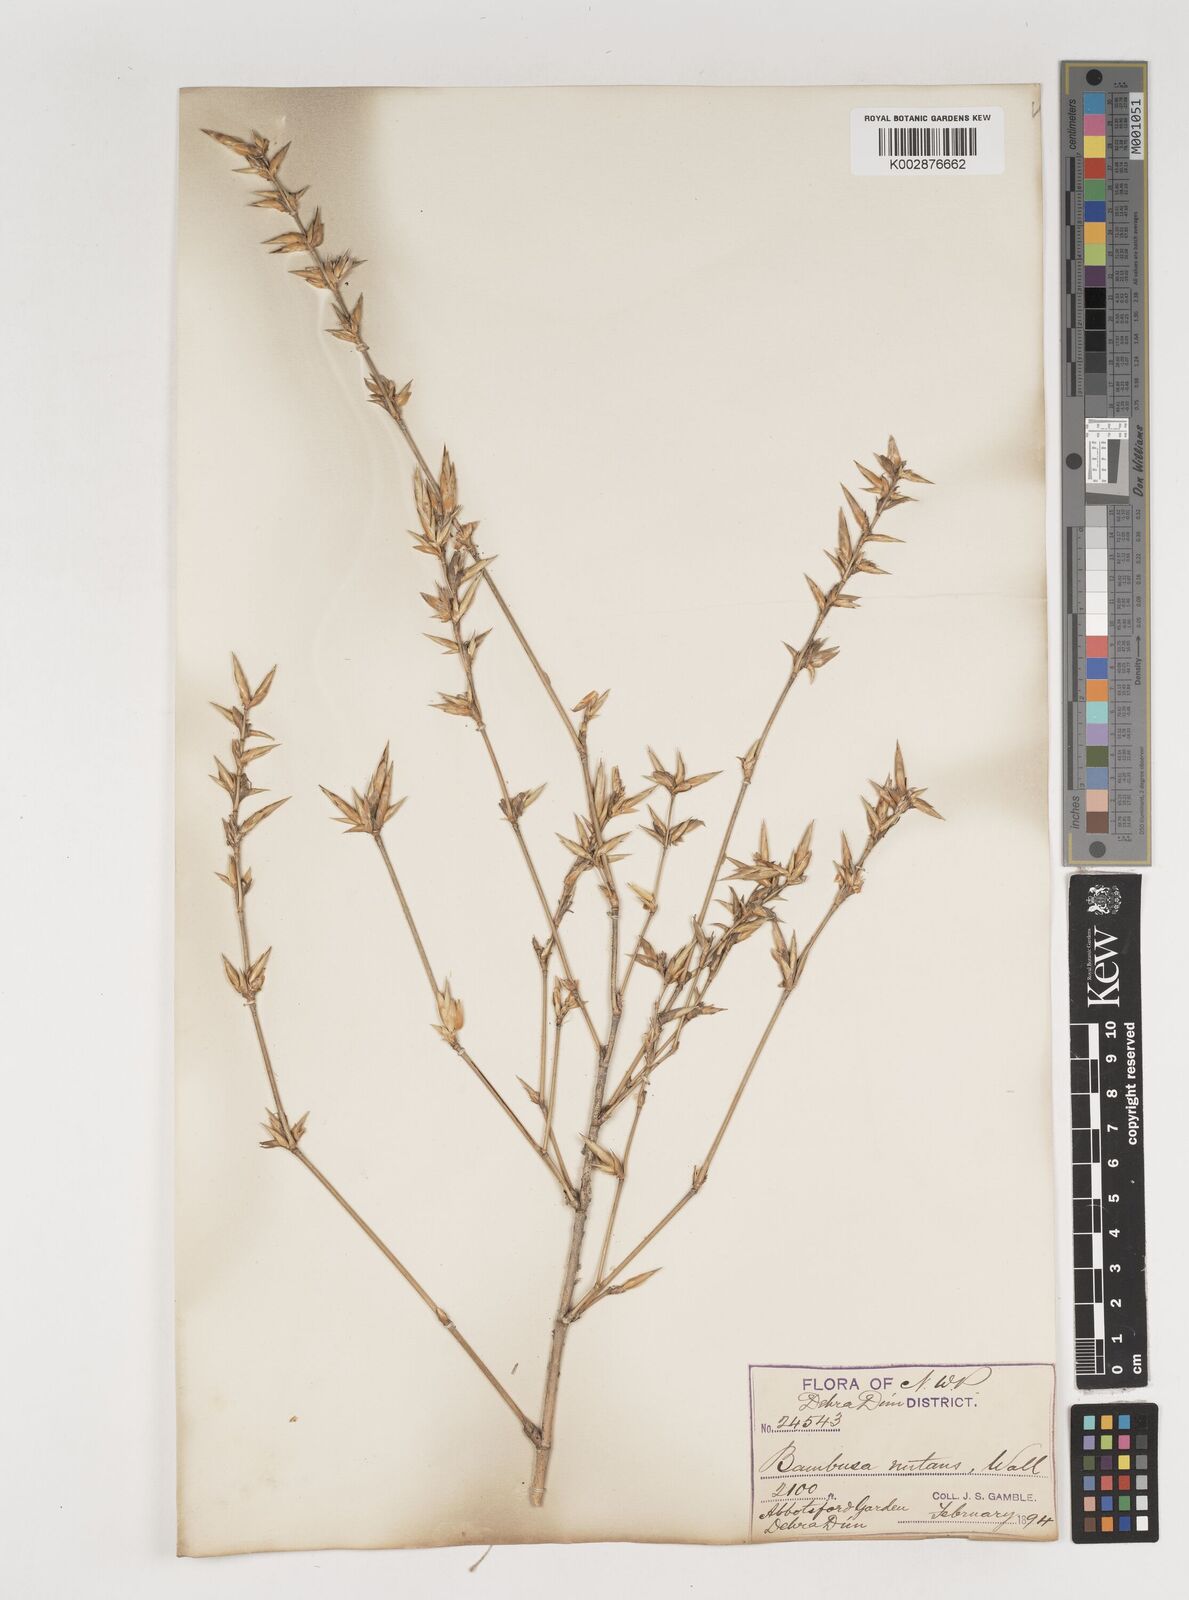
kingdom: Plantae
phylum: Tracheophyta
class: Liliopsida
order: Poales
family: Poaceae
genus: Bambusa
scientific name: Bambusa nutans
